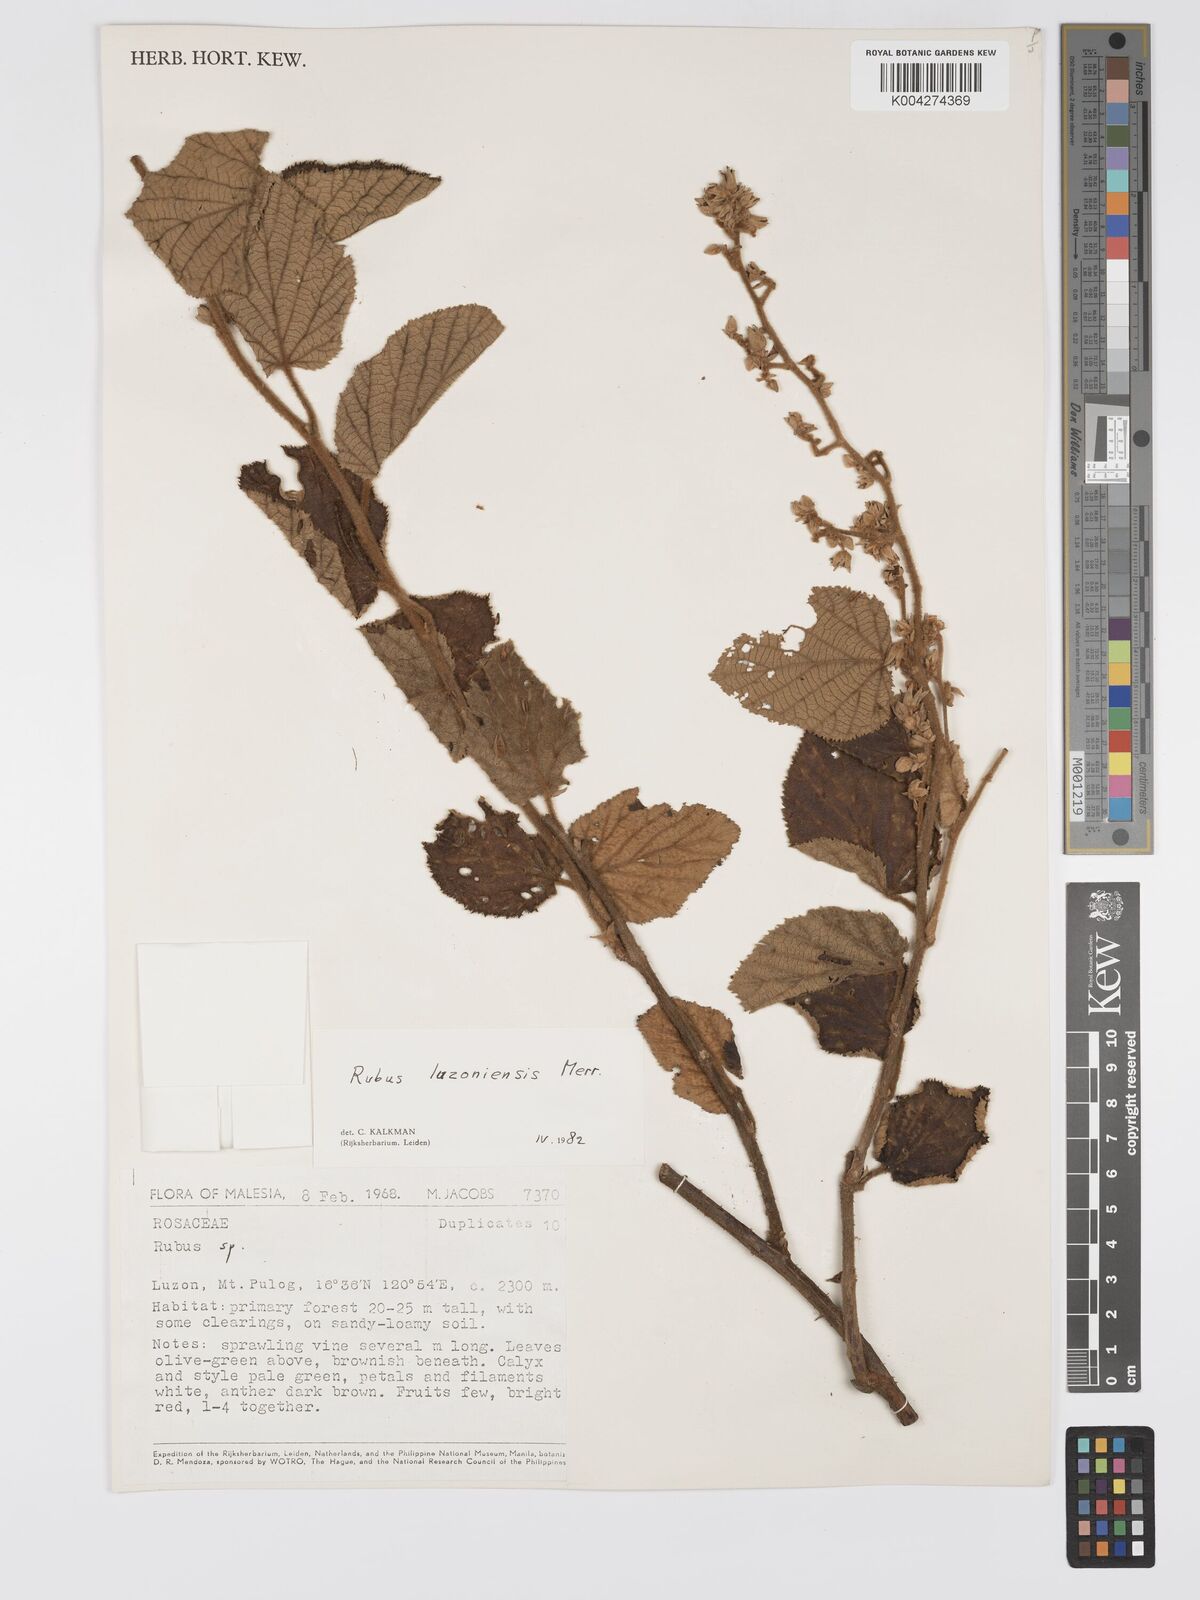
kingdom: Plantae
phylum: Tracheophyta
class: Magnoliopsida
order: Rosales
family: Rosaceae
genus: Rubus
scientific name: Rubus luzoniensis
